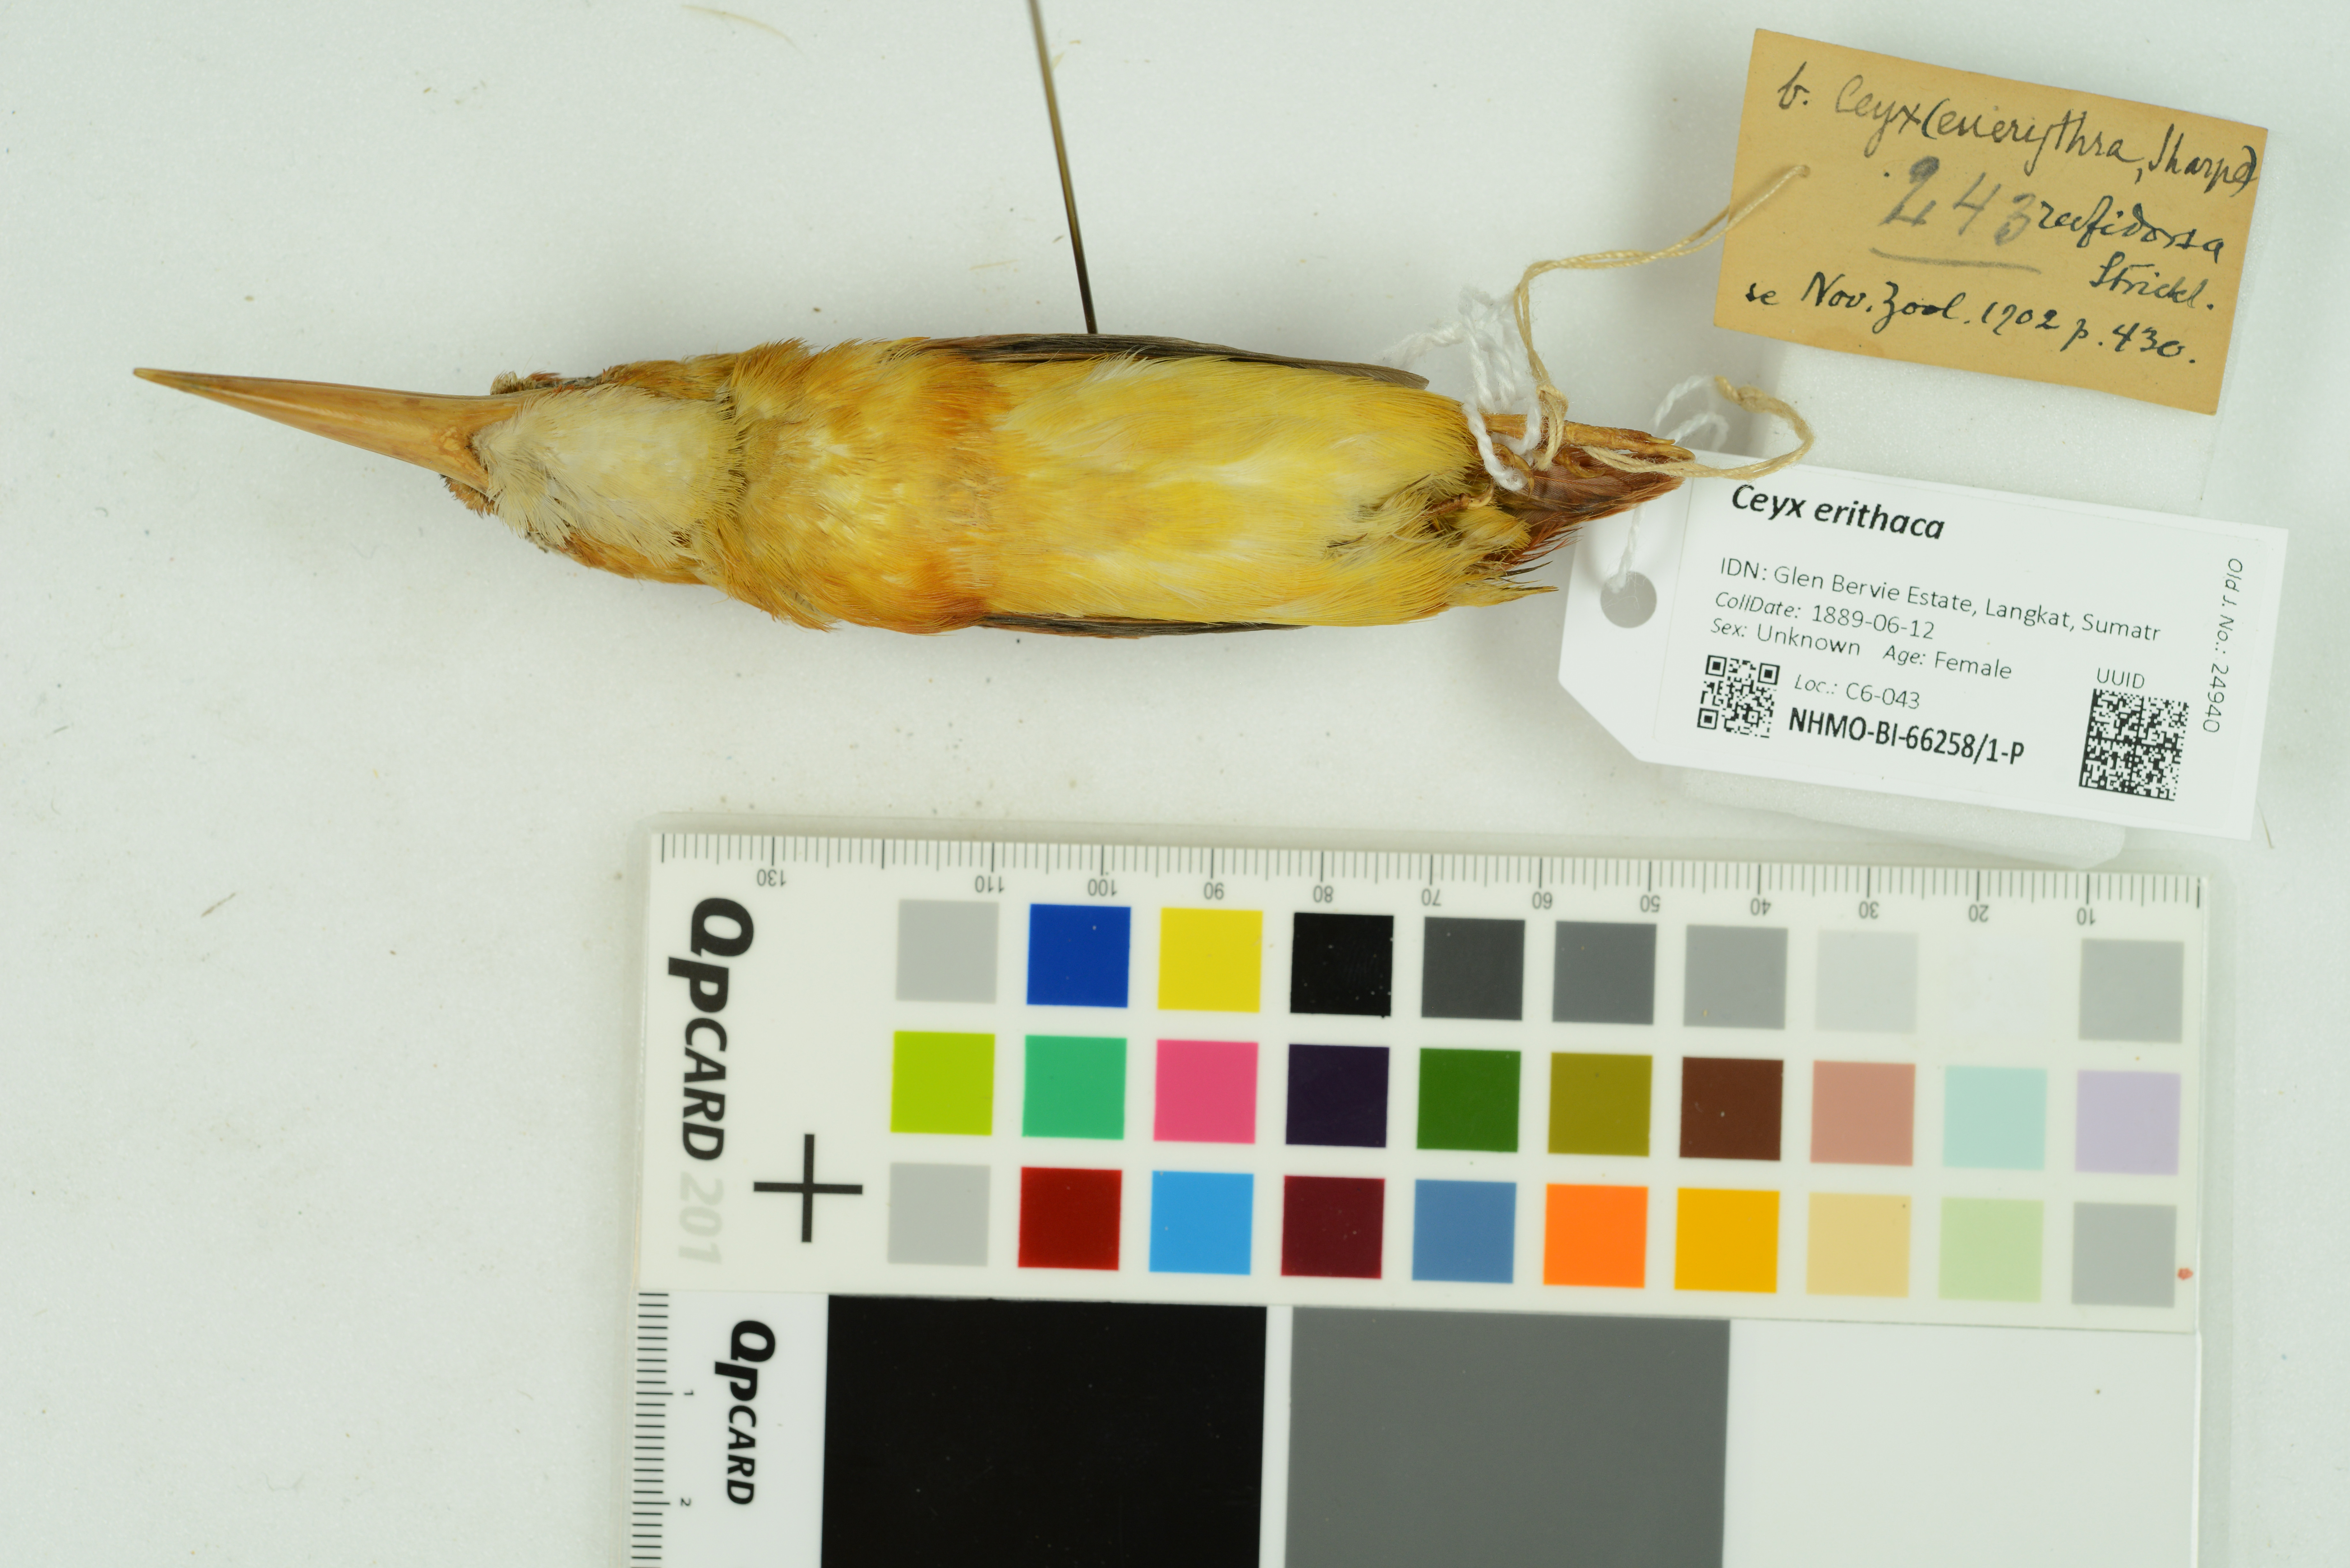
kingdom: Animalia
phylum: Chordata
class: Aves
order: Coraciiformes
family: Alcedinidae
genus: Ceyx
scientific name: Ceyx erithaca
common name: Oriental dwarf kingfisher
